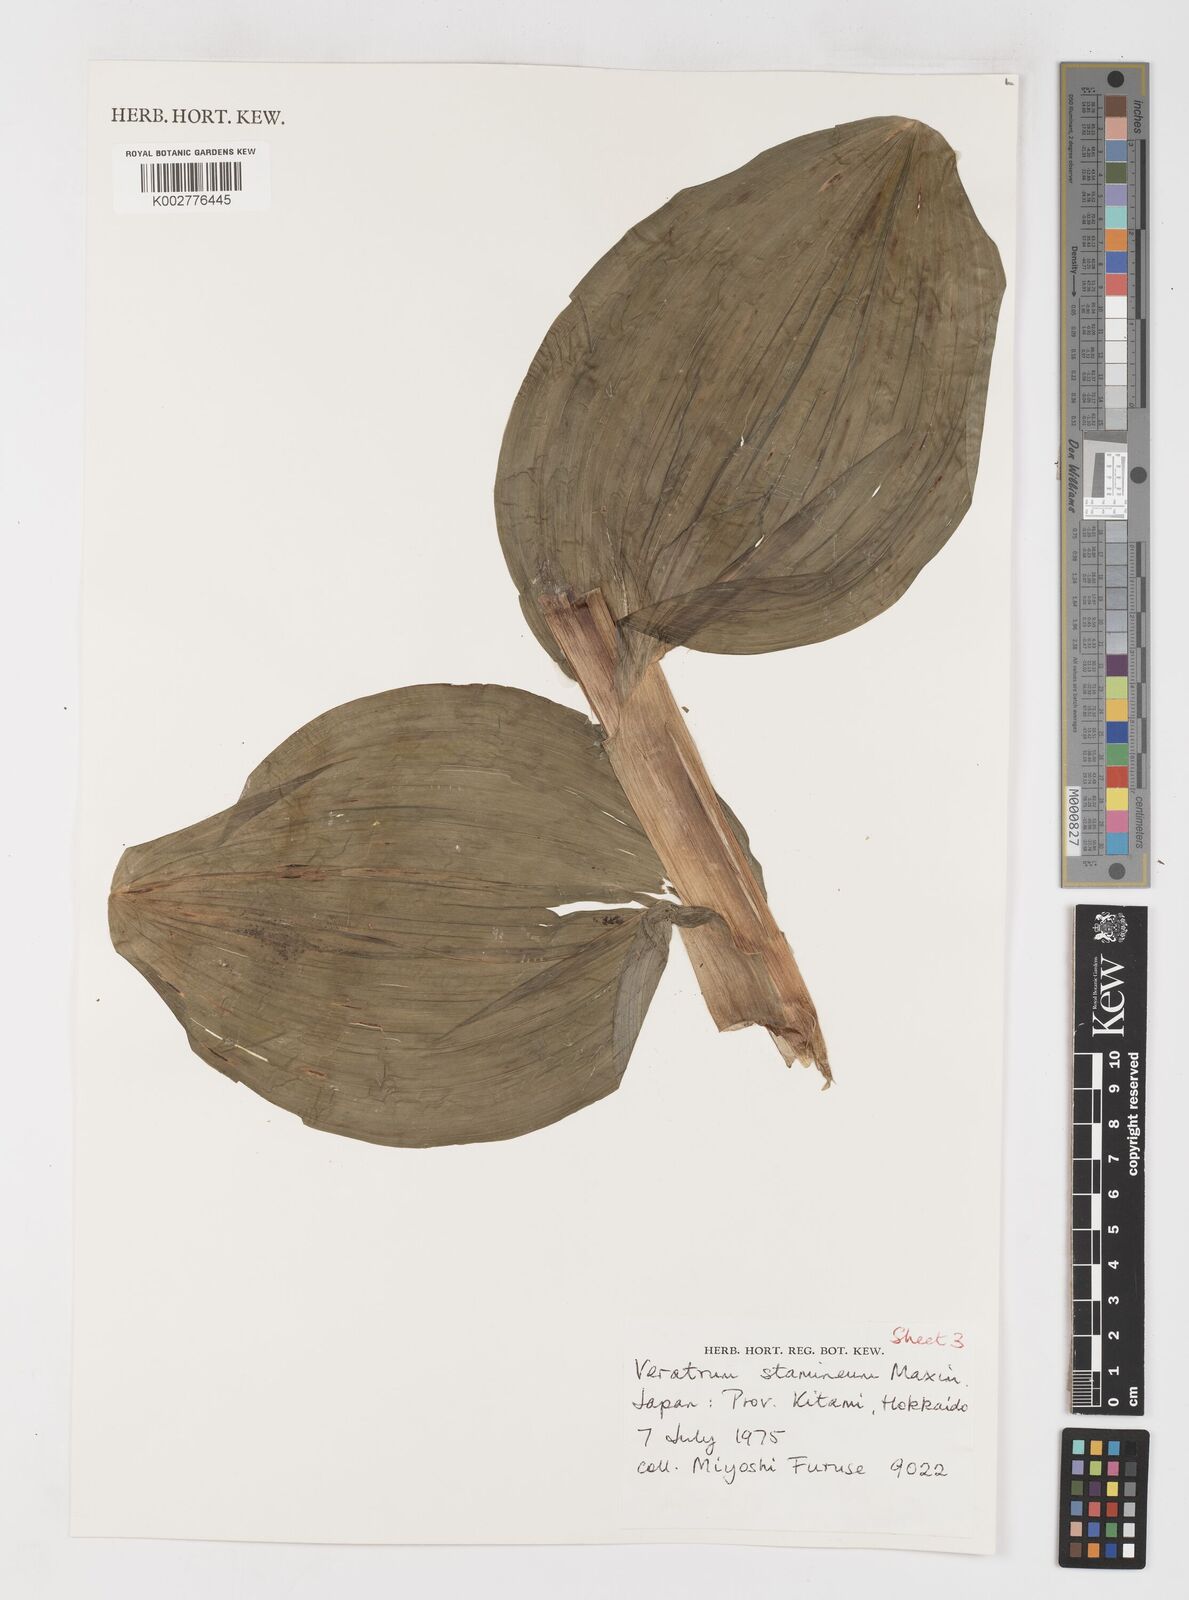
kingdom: Plantae
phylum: Tracheophyta
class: Liliopsida
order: Liliales
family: Melanthiaceae
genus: Veratrum
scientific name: Veratrum stamineum
